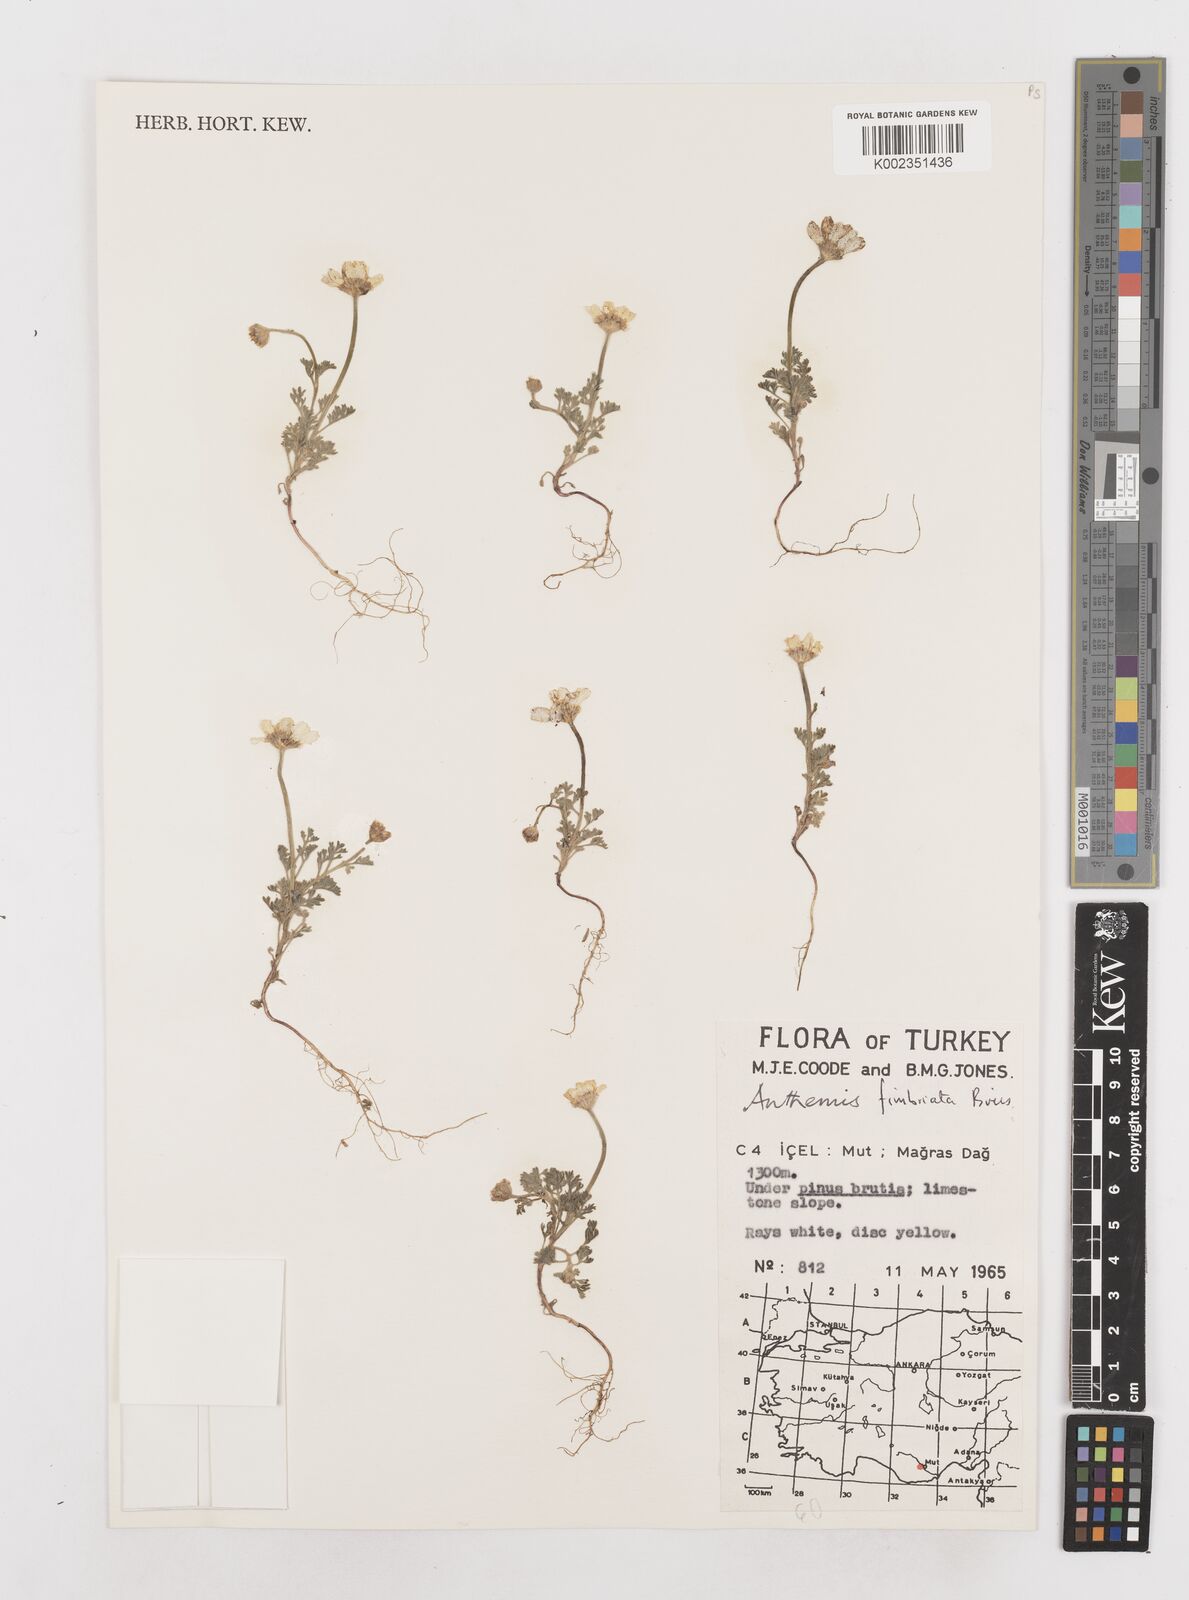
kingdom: Plantae
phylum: Tracheophyta
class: Magnoliopsida
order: Asterales
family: Asteraceae
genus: Anthemis
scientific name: Anthemis fimbriata
